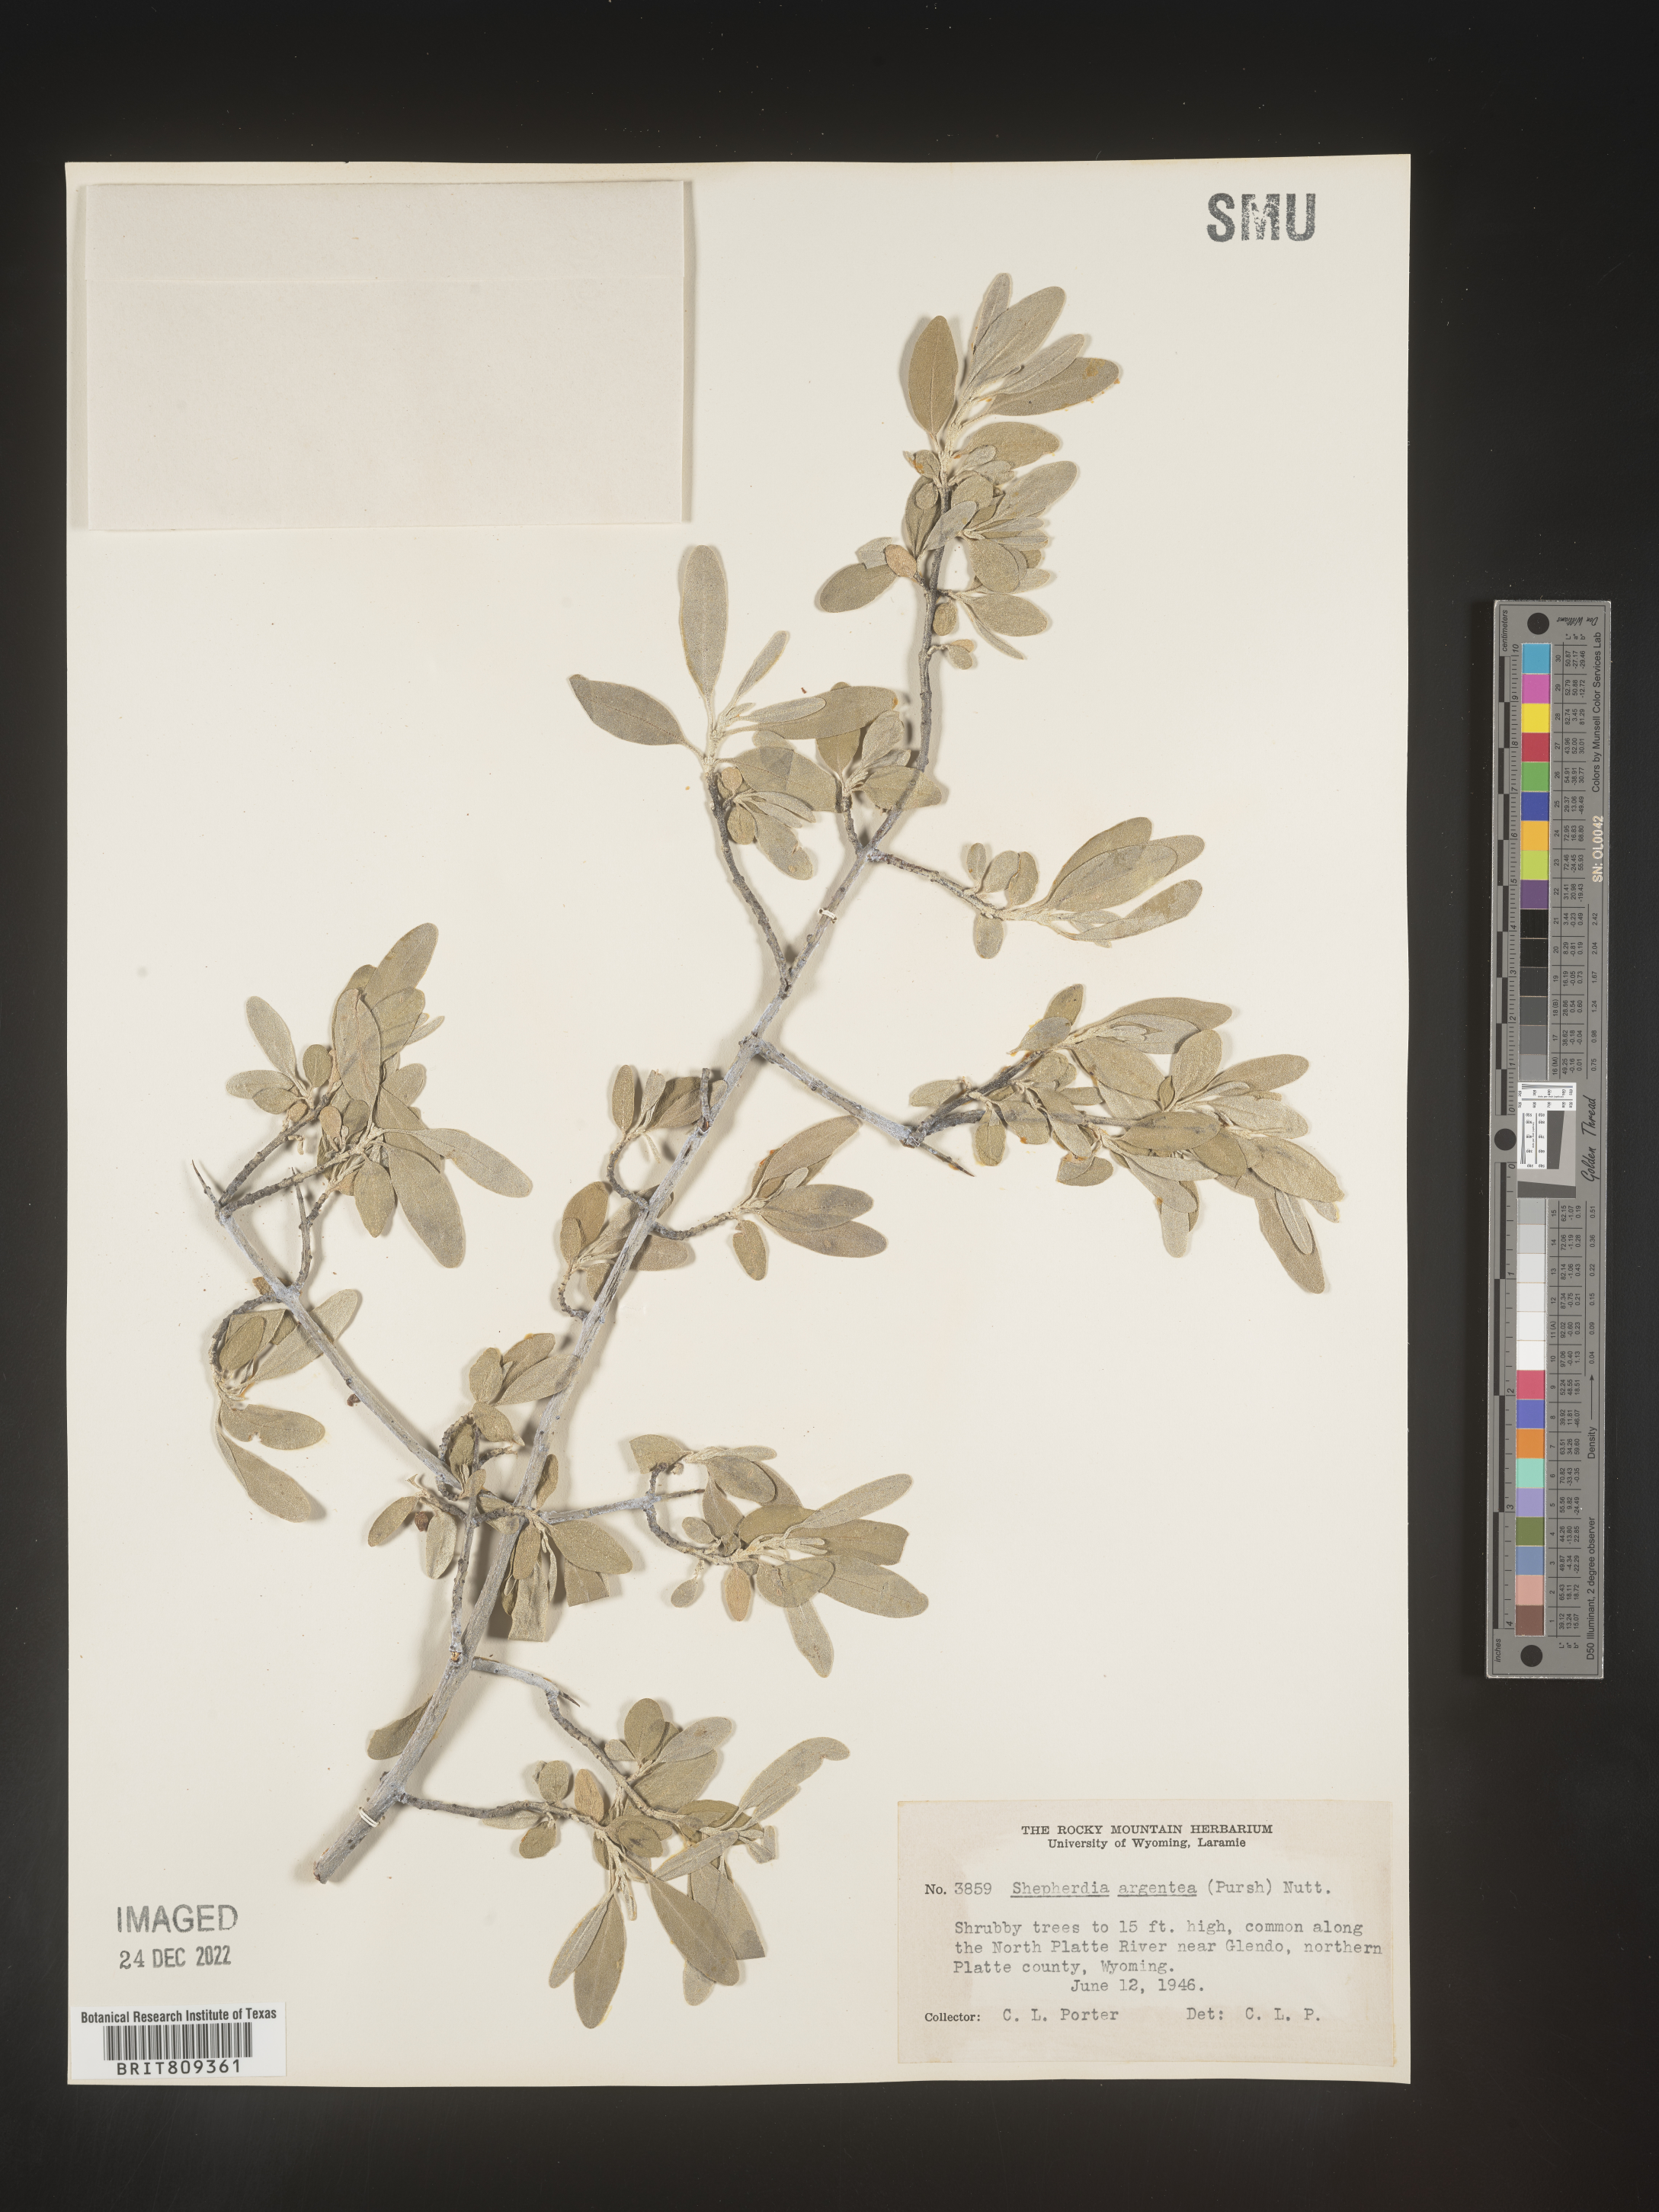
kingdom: Plantae
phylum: Tracheophyta
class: Magnoliopsida
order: Rosales
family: Elaeagnaceae
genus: Shepherdia
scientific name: Shepherdia argentea
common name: Silver buffaloberry
